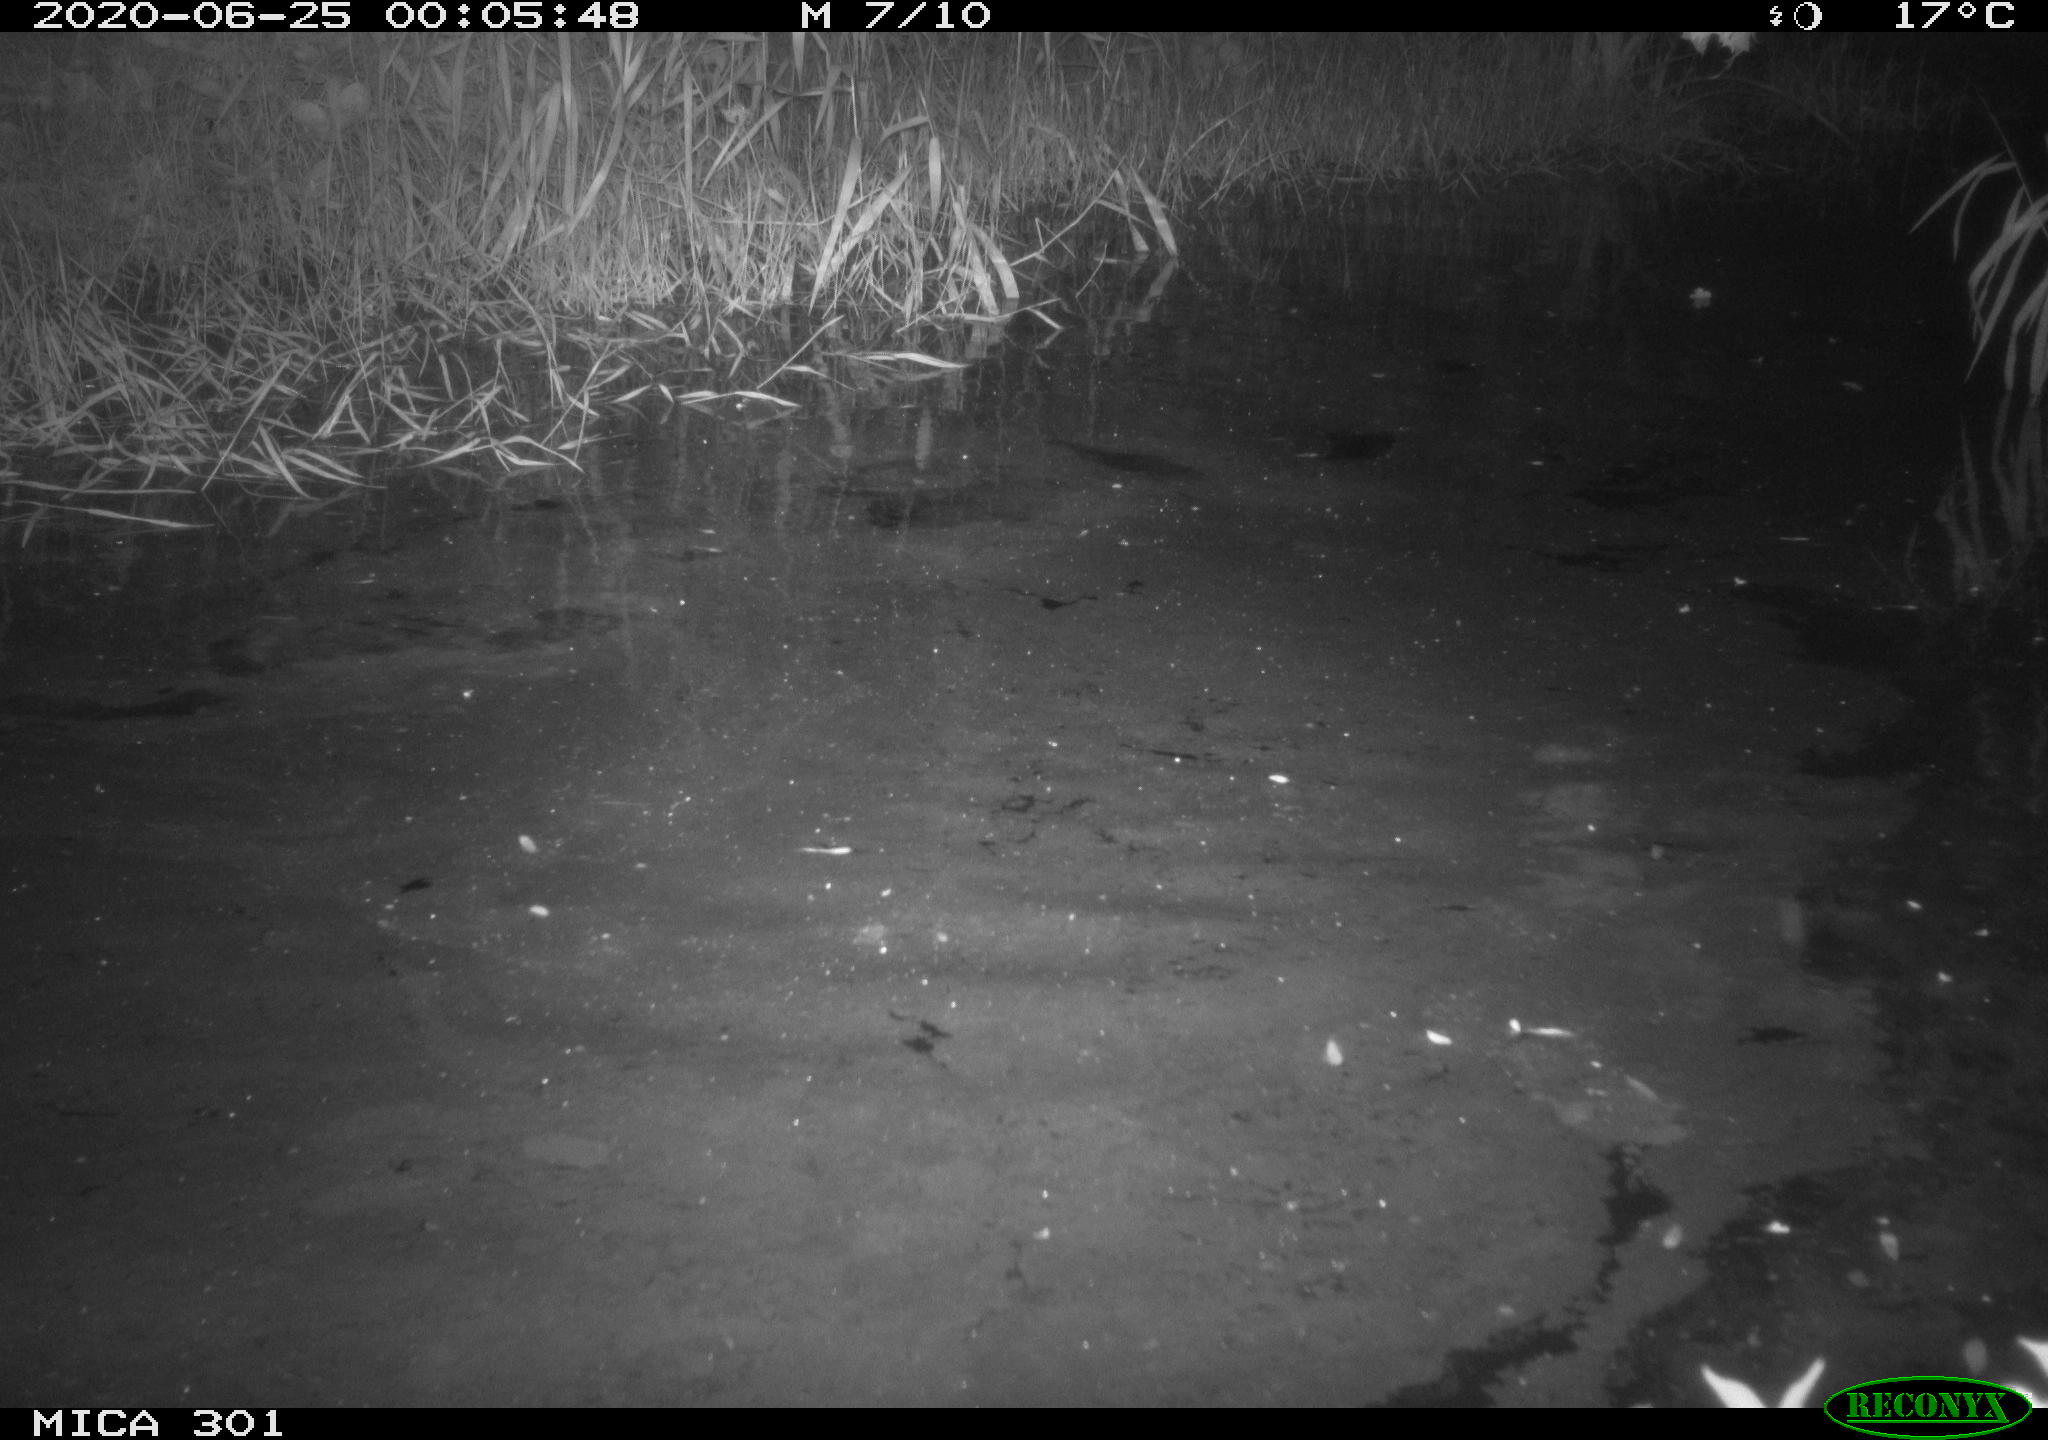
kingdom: Animalia
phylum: Chordata
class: Mammalia
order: Rodentia
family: Castoridae
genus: Castor
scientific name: Castor fiber
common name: Eurasian beaver
